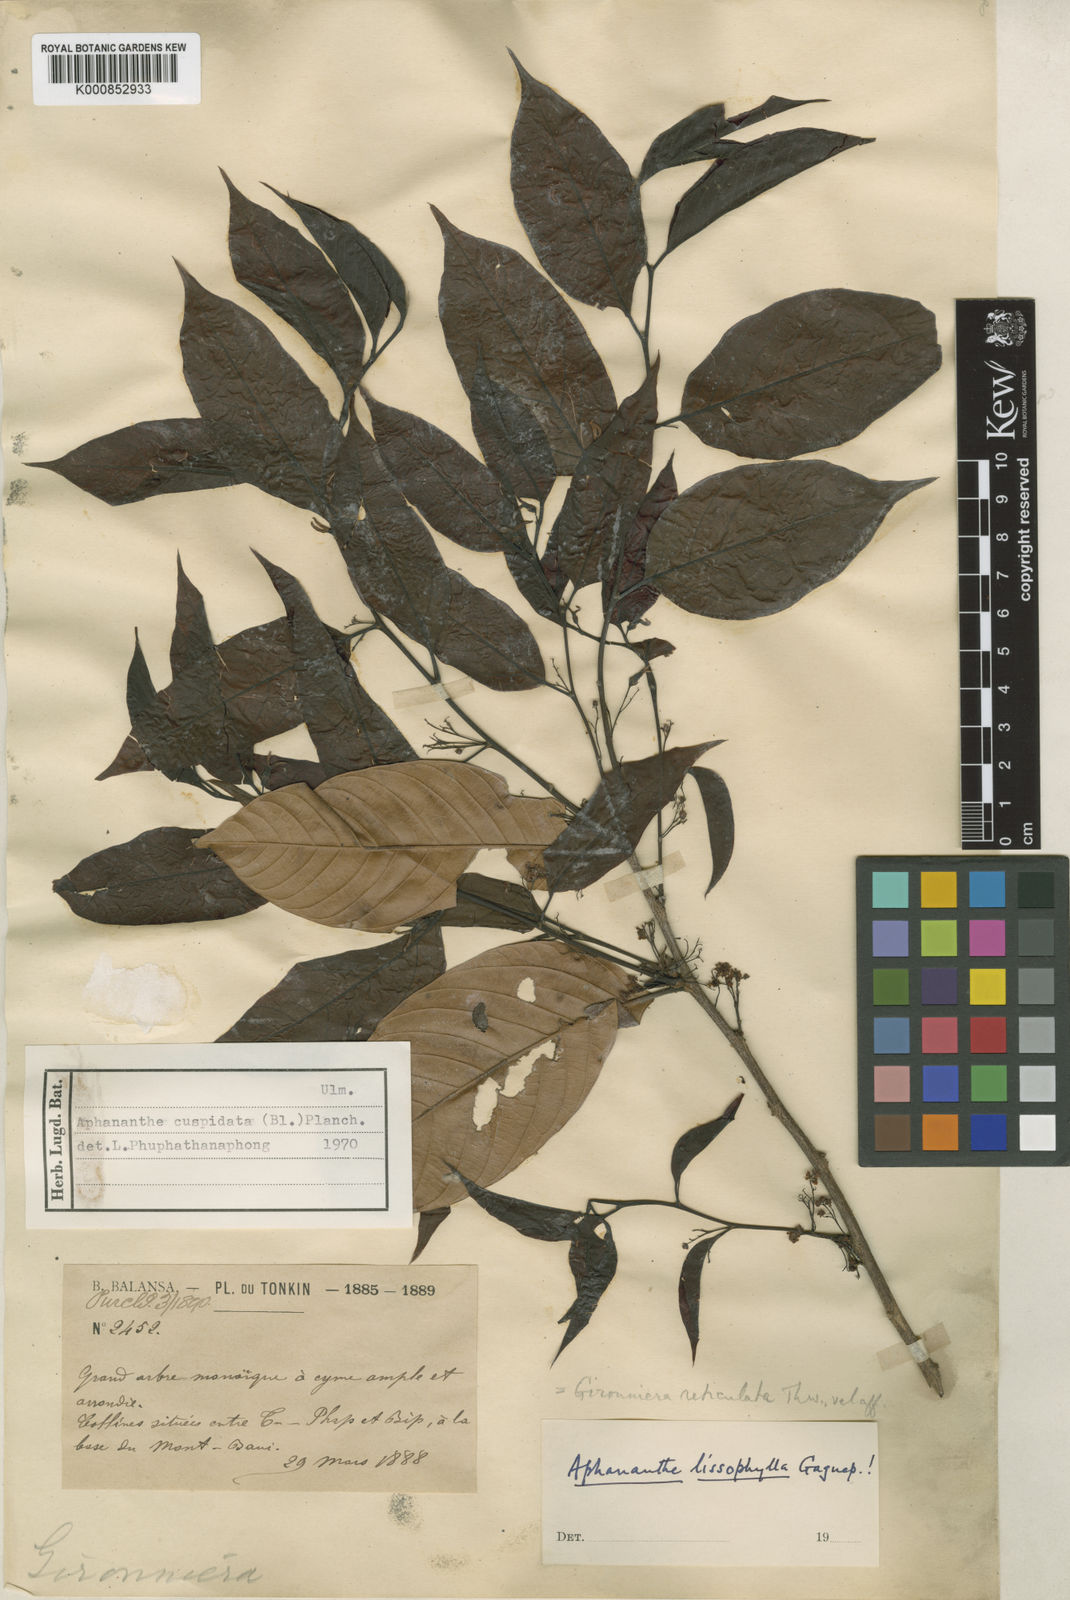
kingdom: Plantae
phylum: Tracheophyta
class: Magnoliopsida
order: Rosales
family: Cannabaceae
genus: Aphananthe
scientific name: Aphananthe cuspidata
